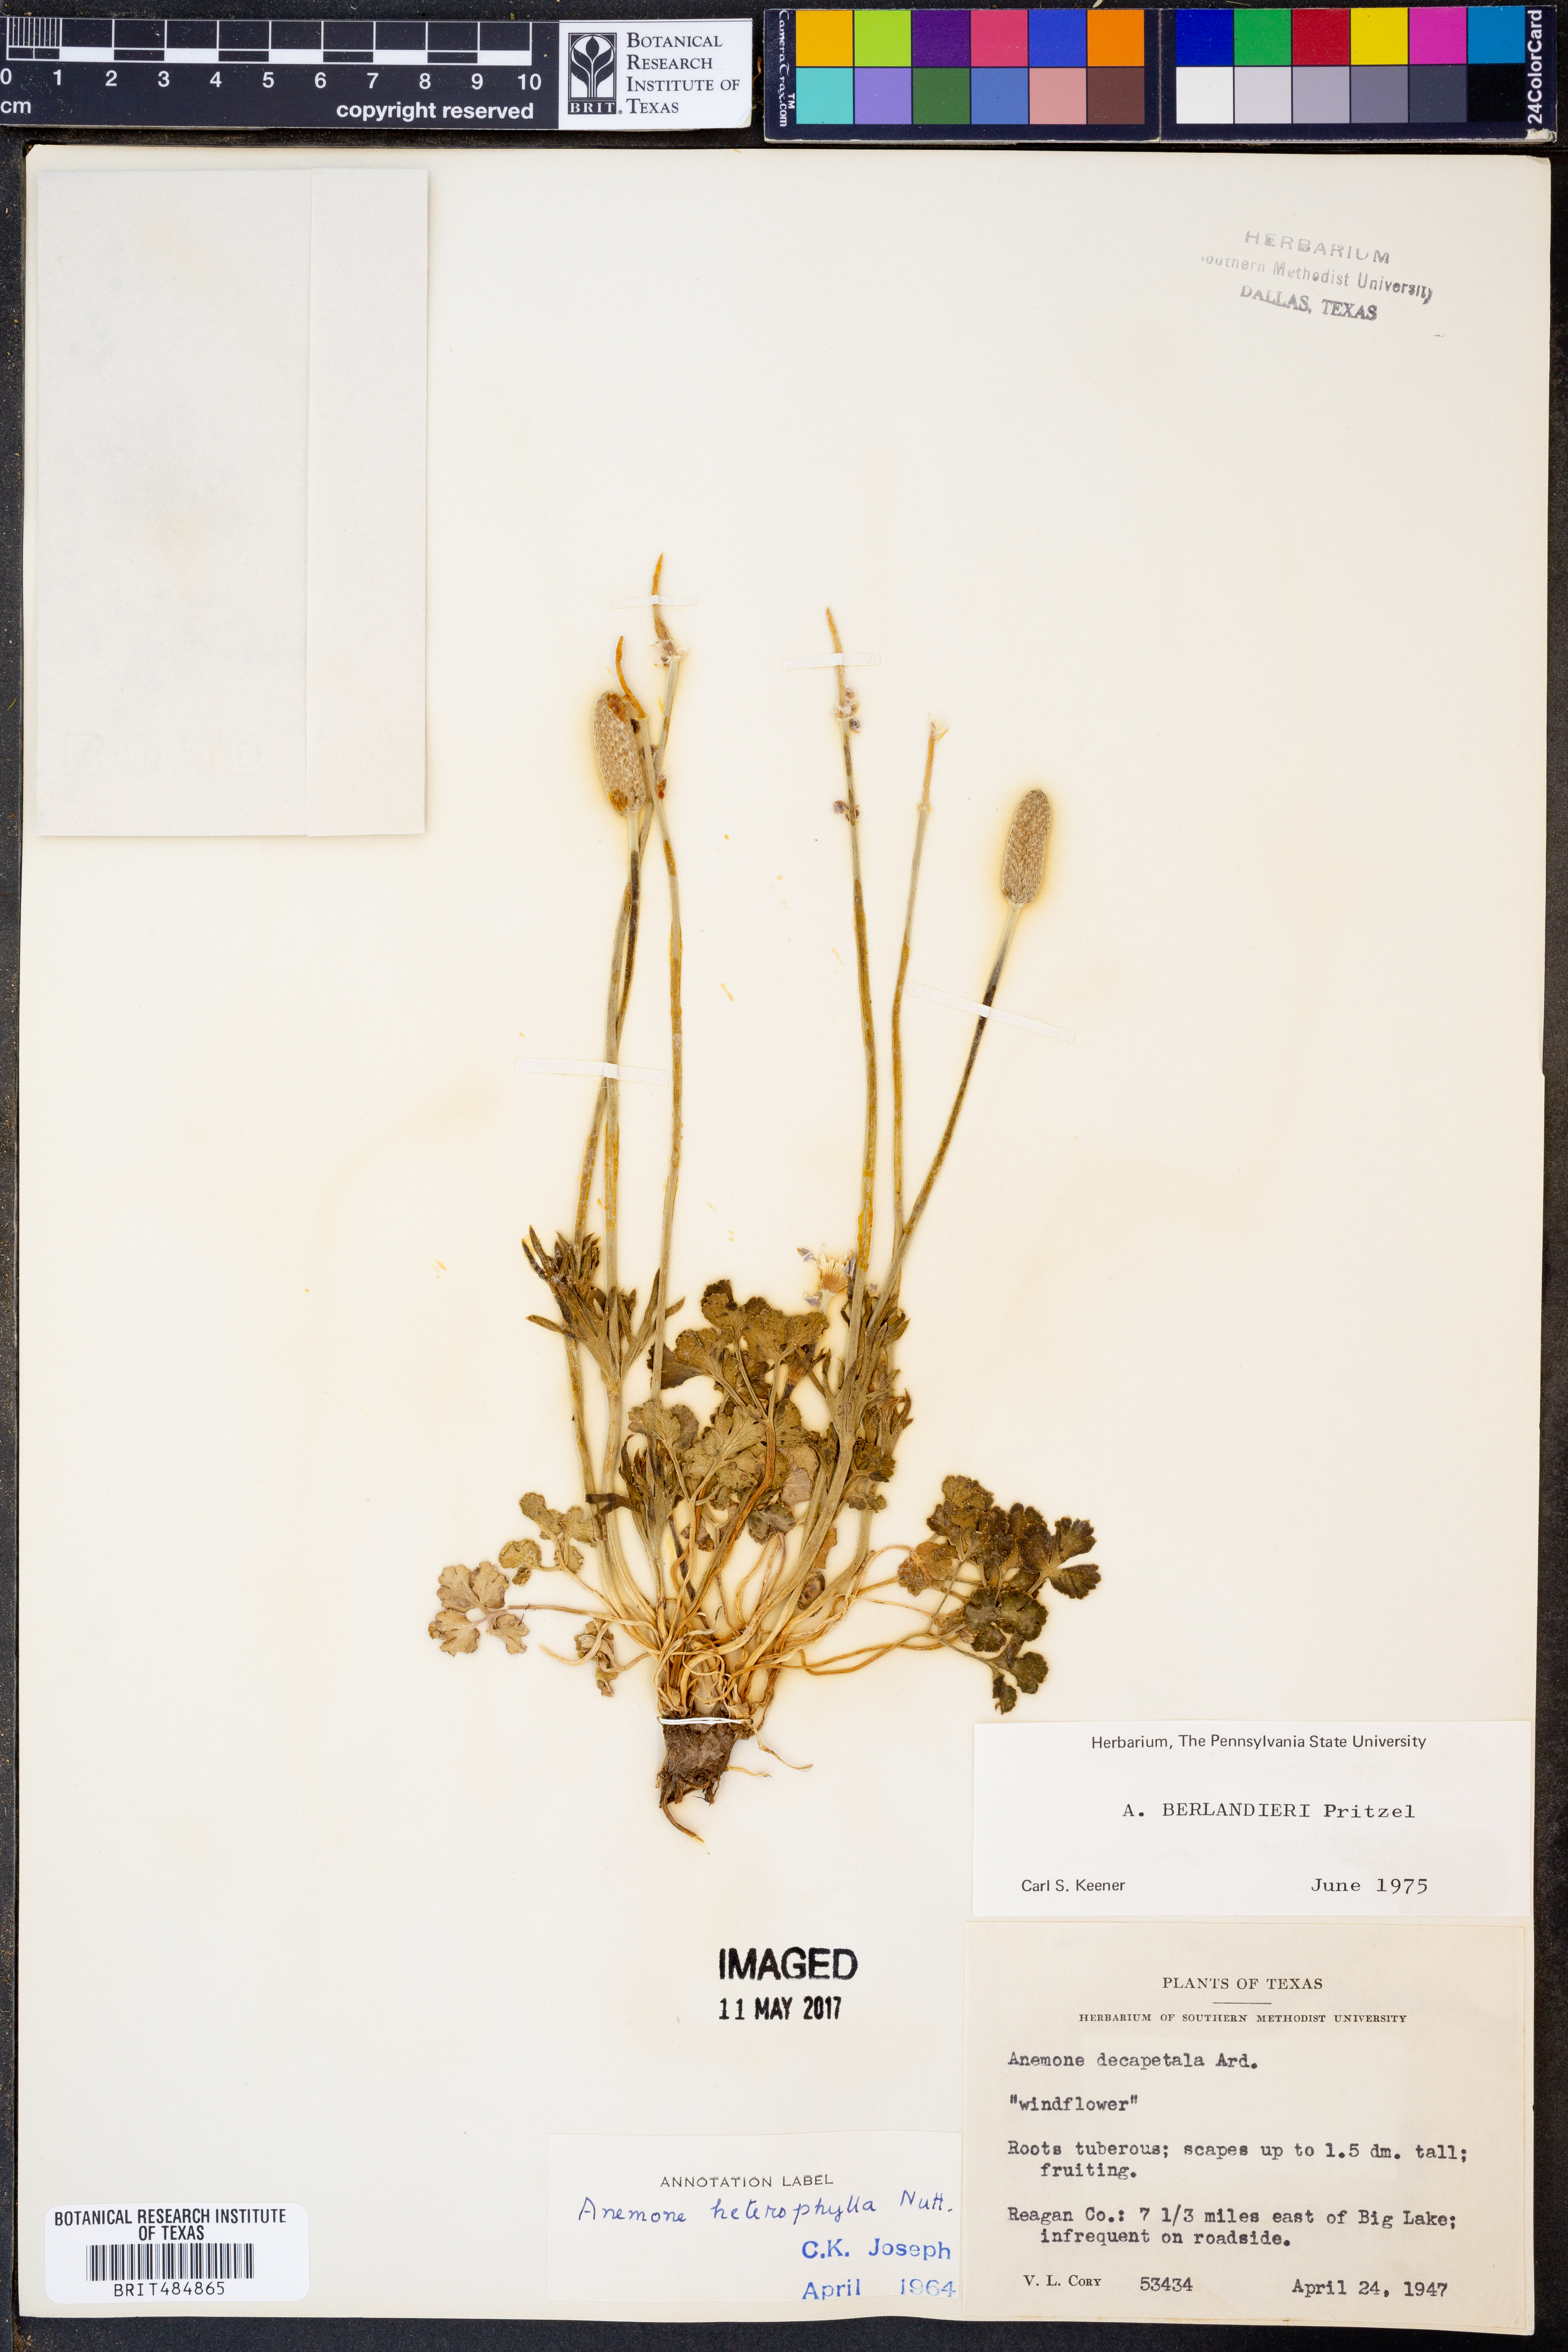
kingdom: Plantae
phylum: Tracheophyta
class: Magnoliopsida
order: Ranunculales
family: Ranunculaceae
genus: Anemone
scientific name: Anemone berlandieri
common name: Ten-petal anemone
